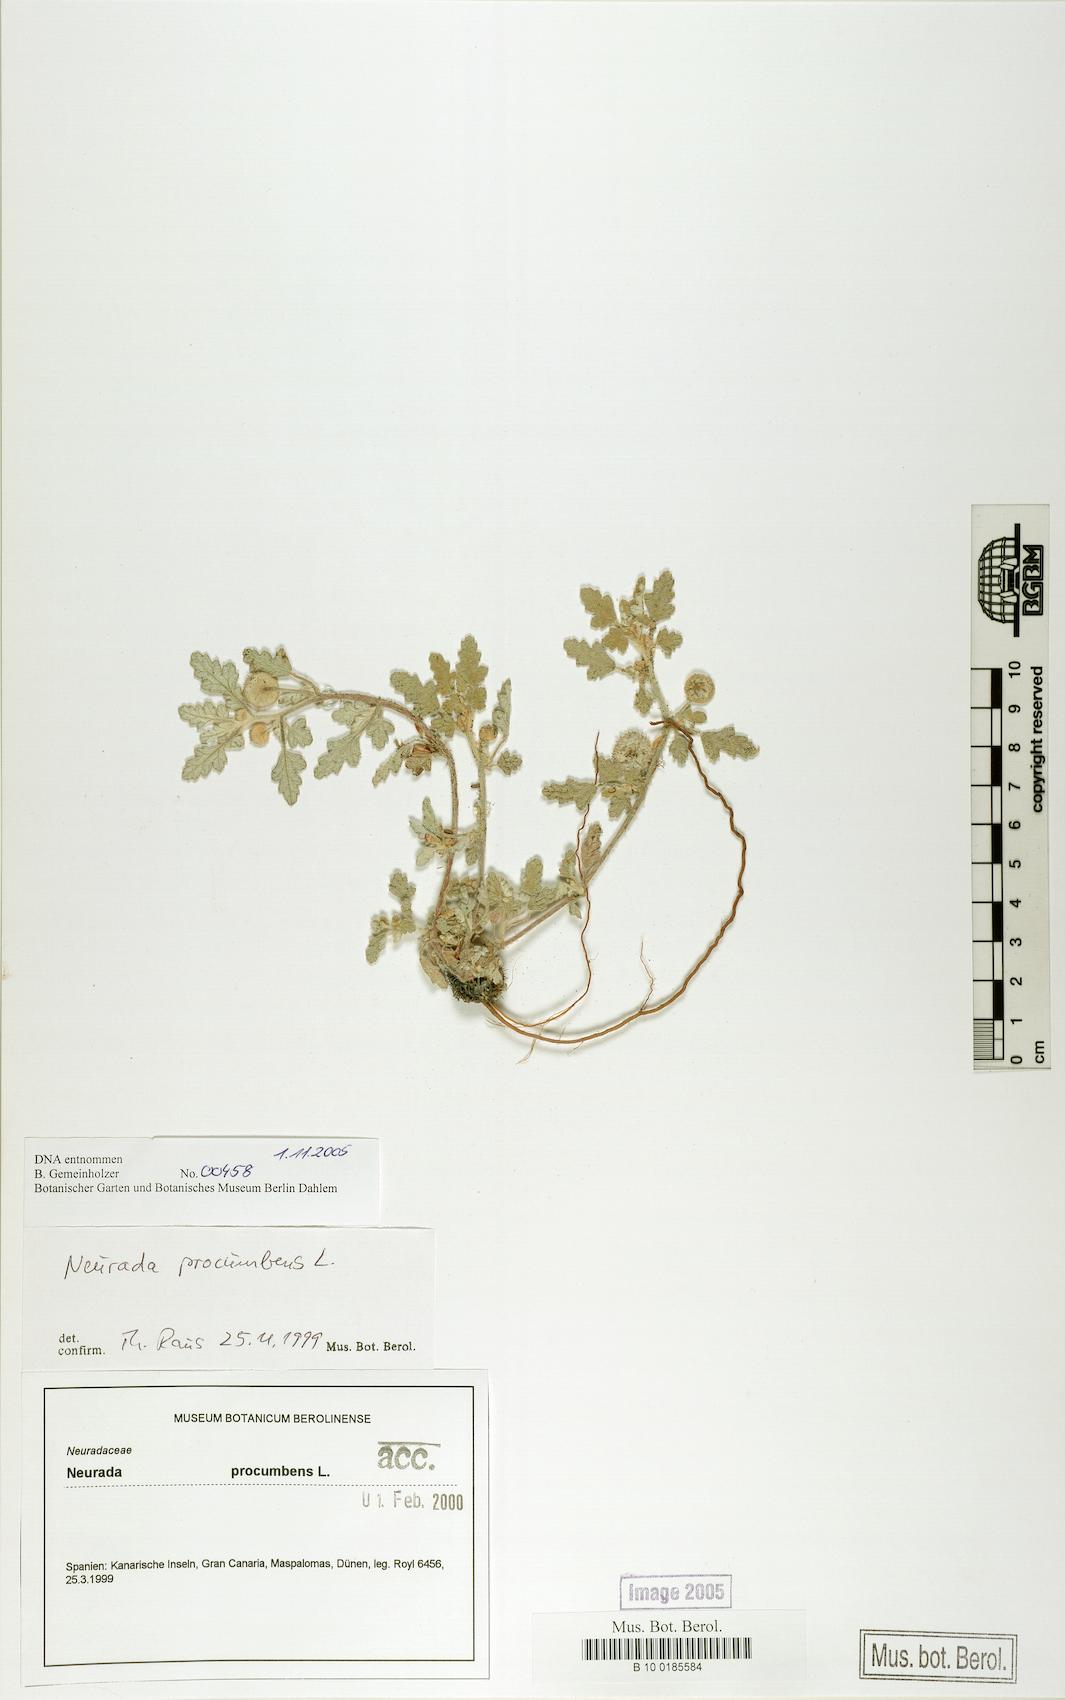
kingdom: Plantae
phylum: Tracheophyta
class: Magnoliopsida
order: Malvales
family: Neuradaceae
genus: Neurada
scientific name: Neurada procumbens
